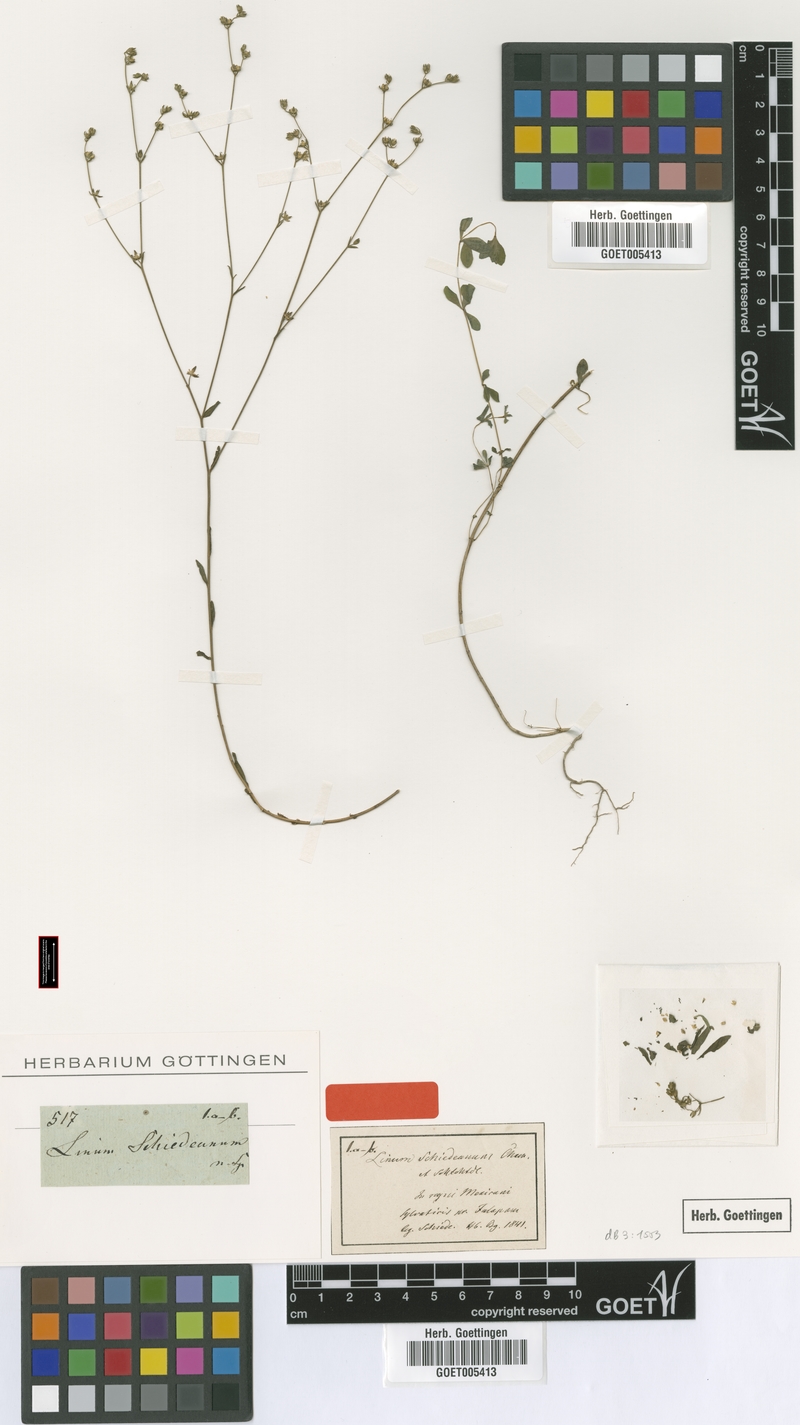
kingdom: Plantae
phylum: Tracheophyta
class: Magnoliopsida
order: Malpighiales
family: Linaceae
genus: Linum
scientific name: Linum schiedeanum
